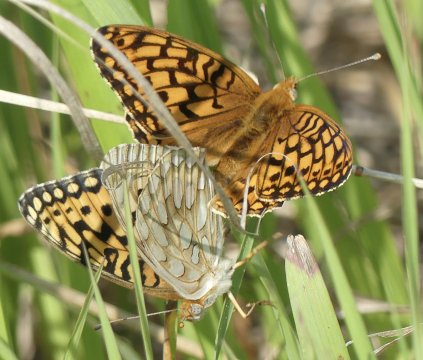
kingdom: Animalia
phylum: Arthropoda
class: Insecta
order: Lepidoptera
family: Nymphalidae
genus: Speyeria
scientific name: Speyeria callippe
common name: Callippe Fritillary
